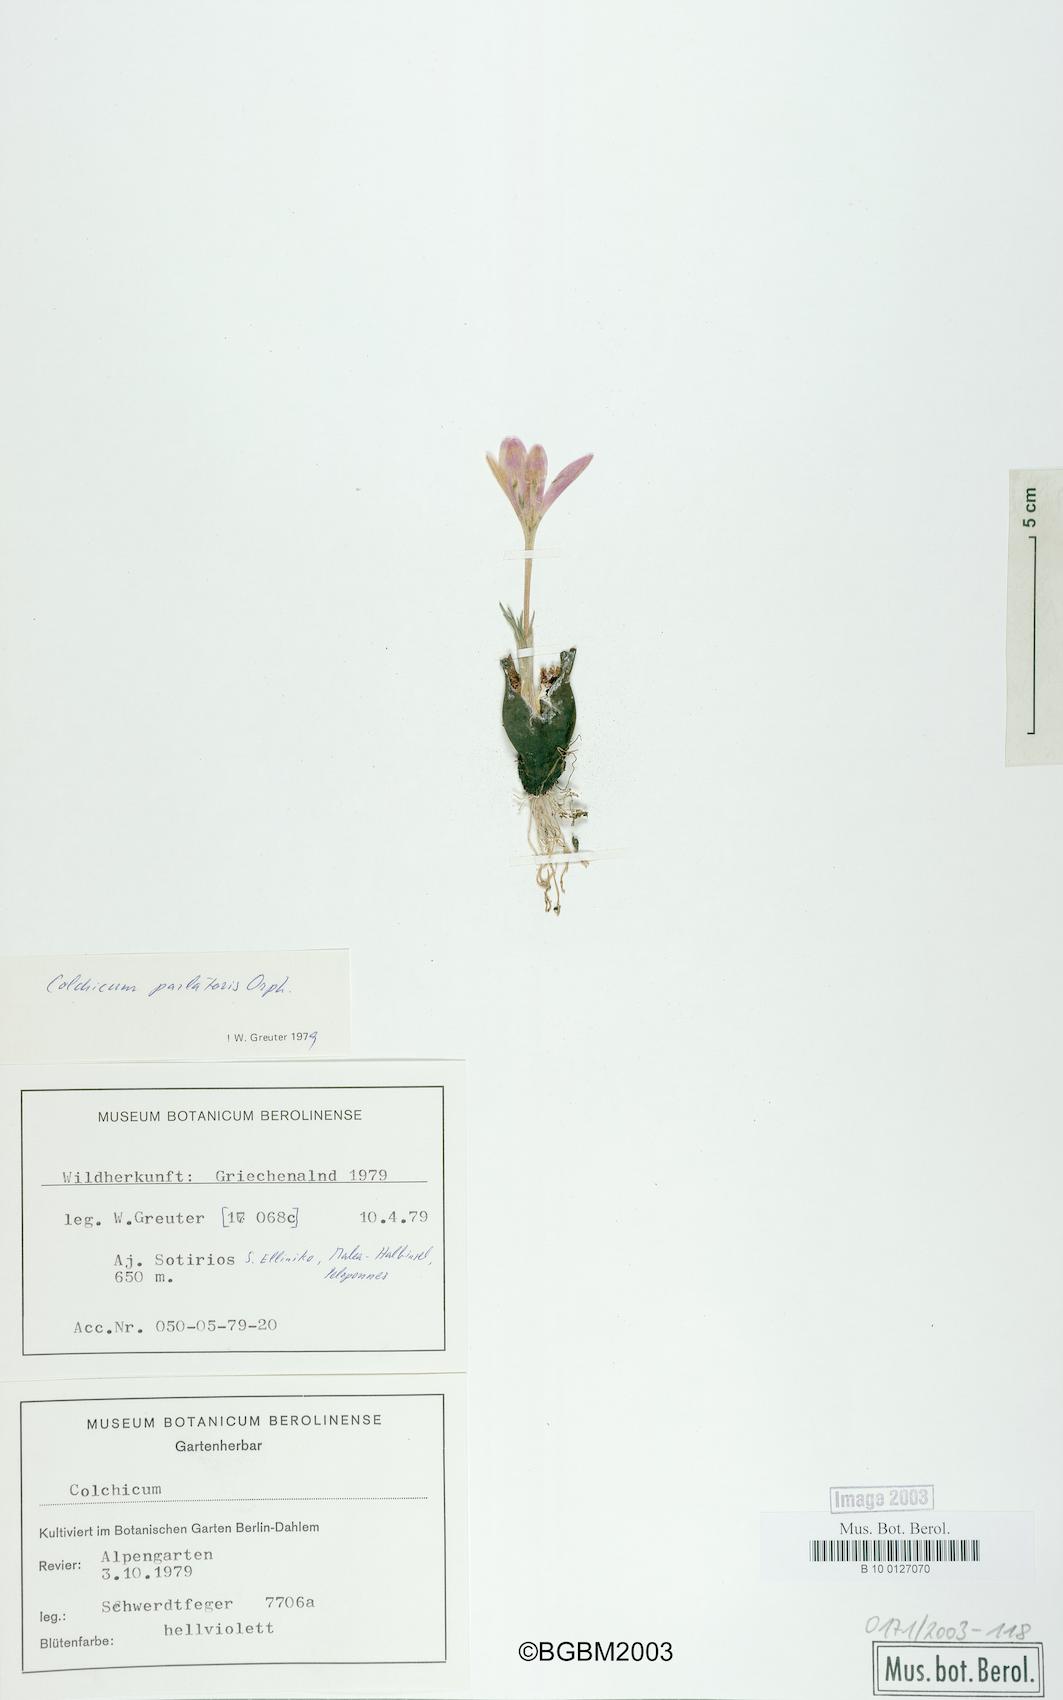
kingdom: Plantae
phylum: Tracheophyta
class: Liliopsida
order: Liliales
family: Colchicaceae
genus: Colchicum
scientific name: Colchicum parlatoris
